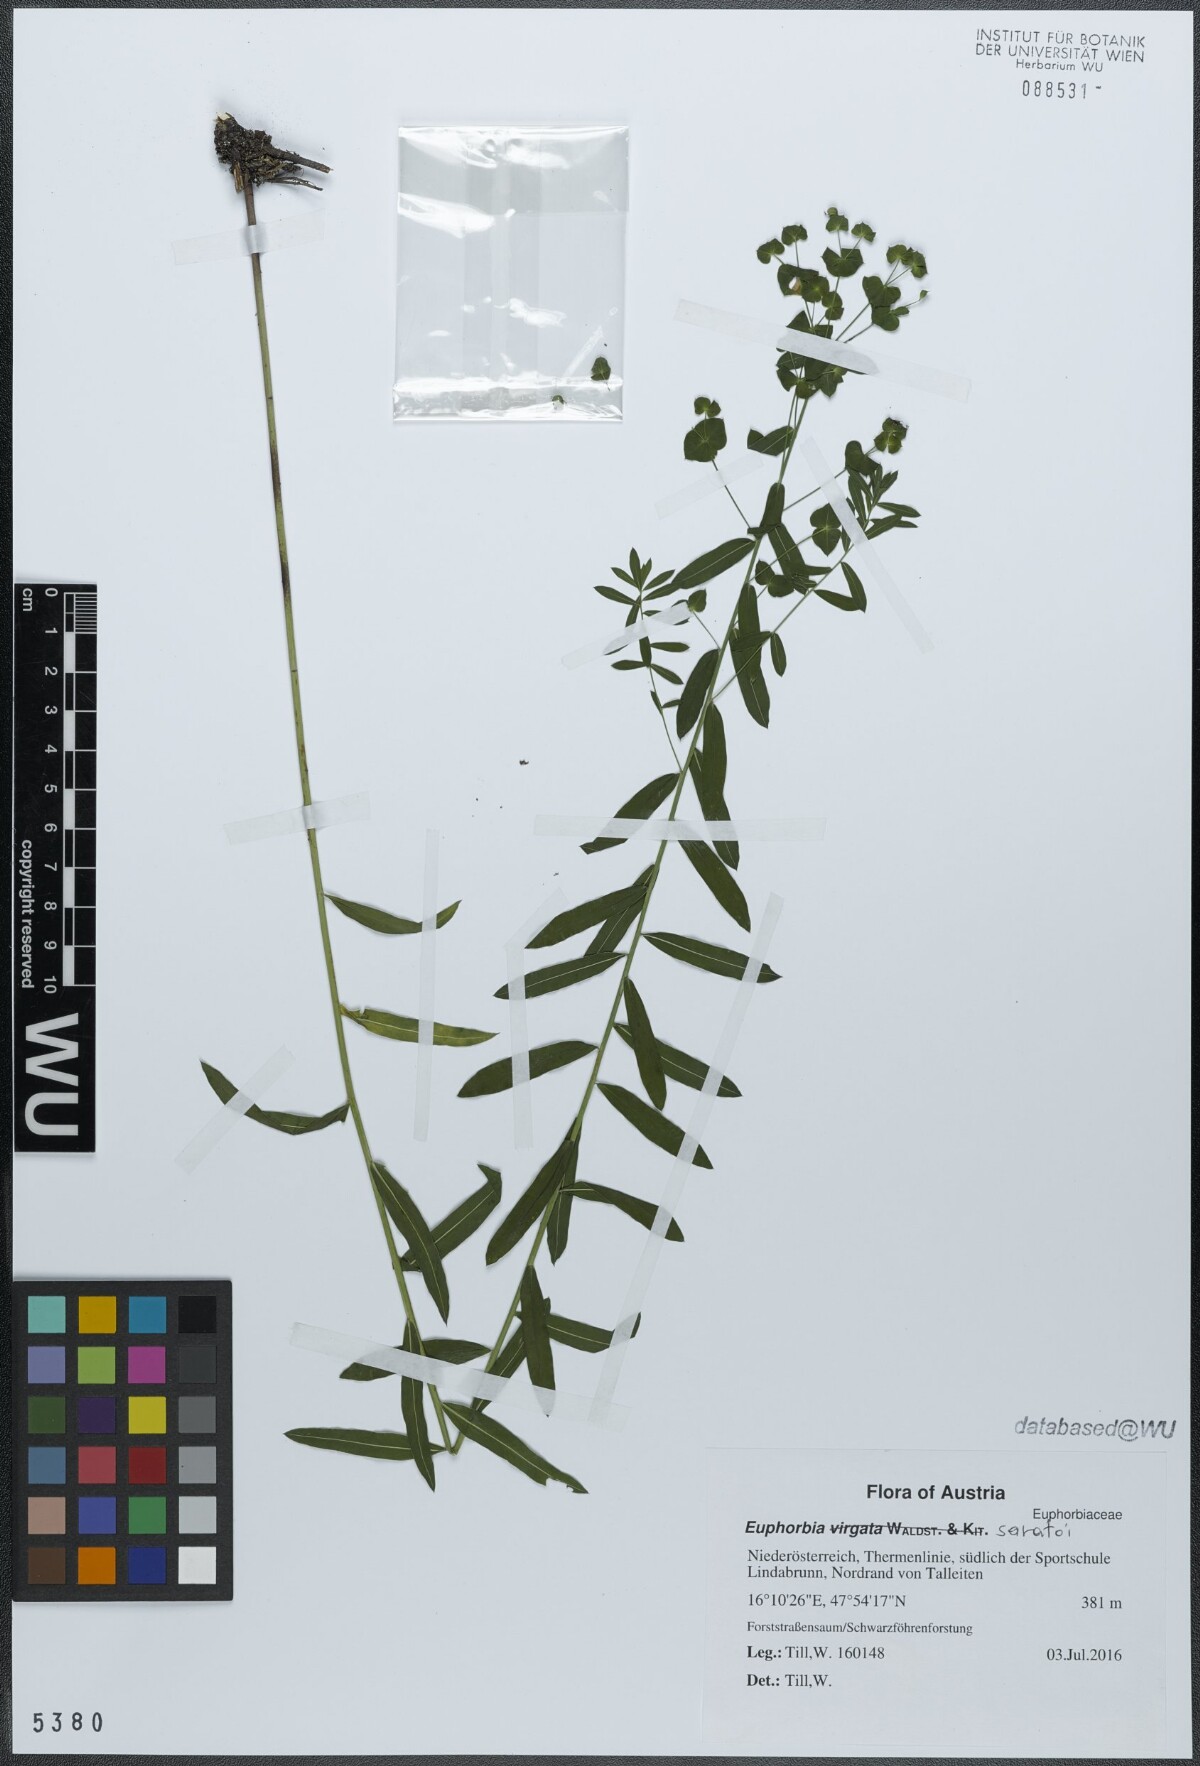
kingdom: Plantae
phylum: Tracheophyta
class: Magnoliopsida
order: Malpighiales
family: Euphorbiaceae
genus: Euphorbia
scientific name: Euphorbia saratoi
